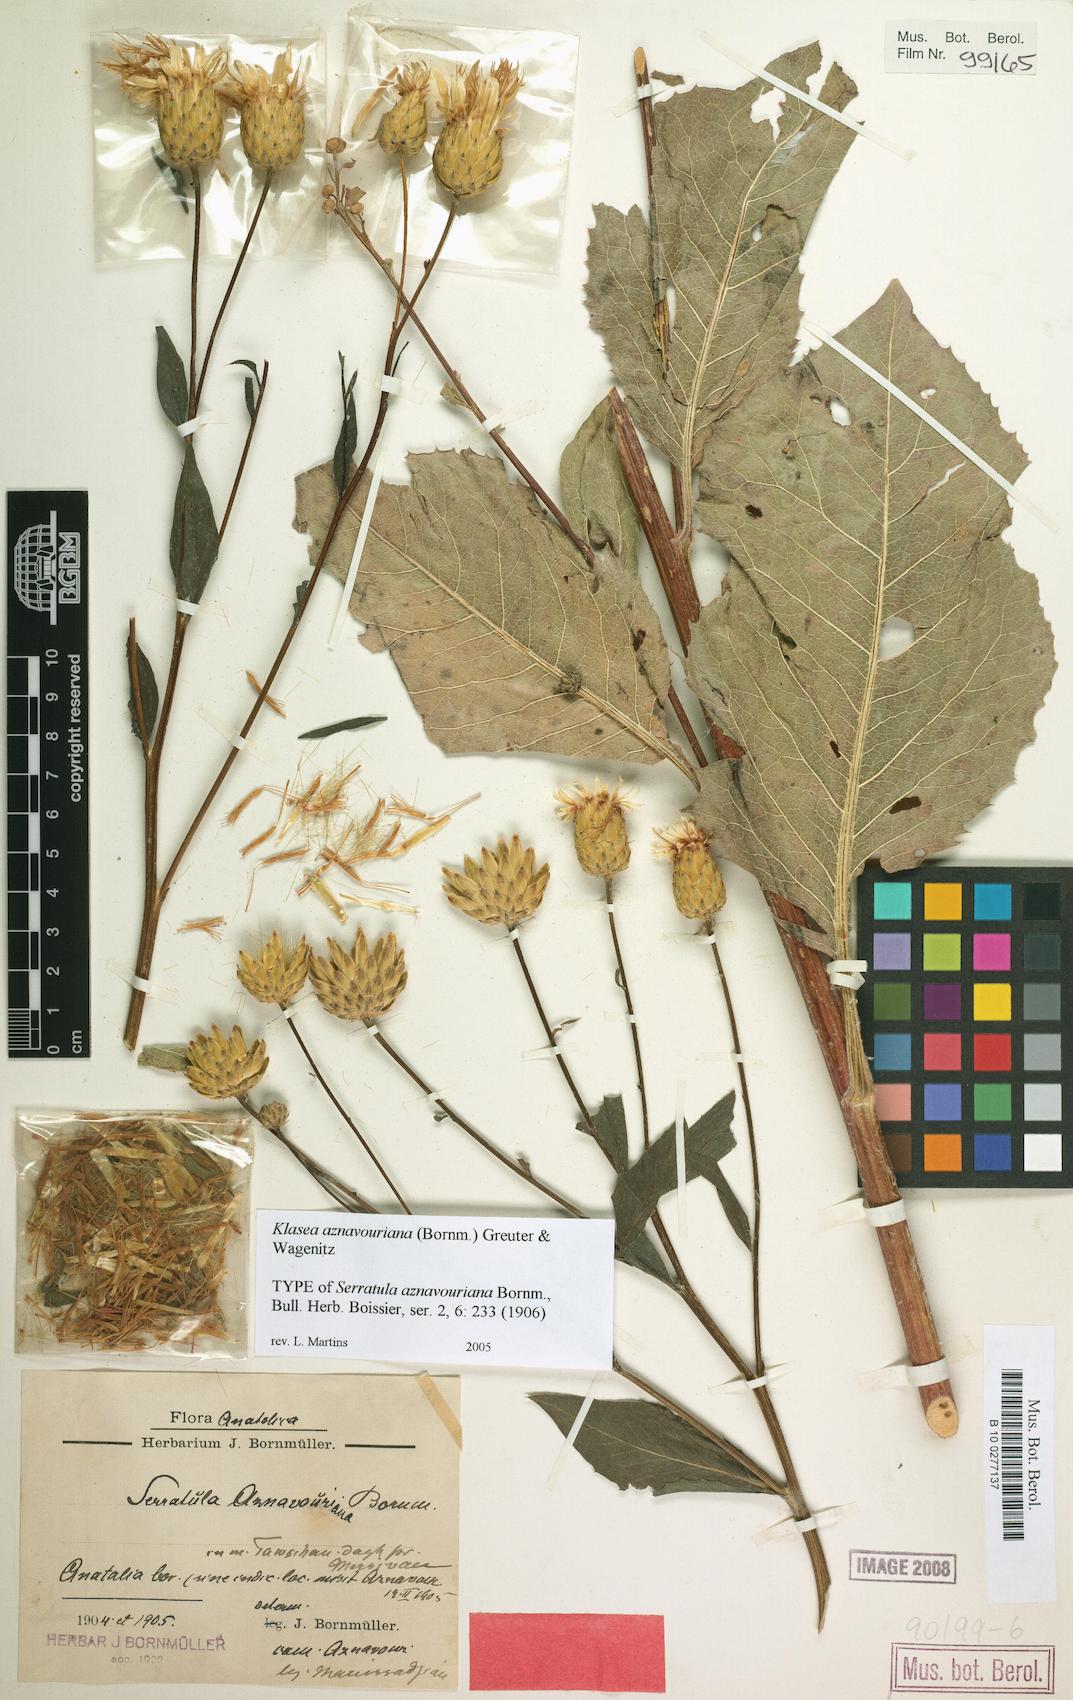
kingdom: Plantae
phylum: Tracheophyta
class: Magnoliopsida
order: Asterales
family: Asteraceae
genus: Klasea
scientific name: Klasea aznavouriana
